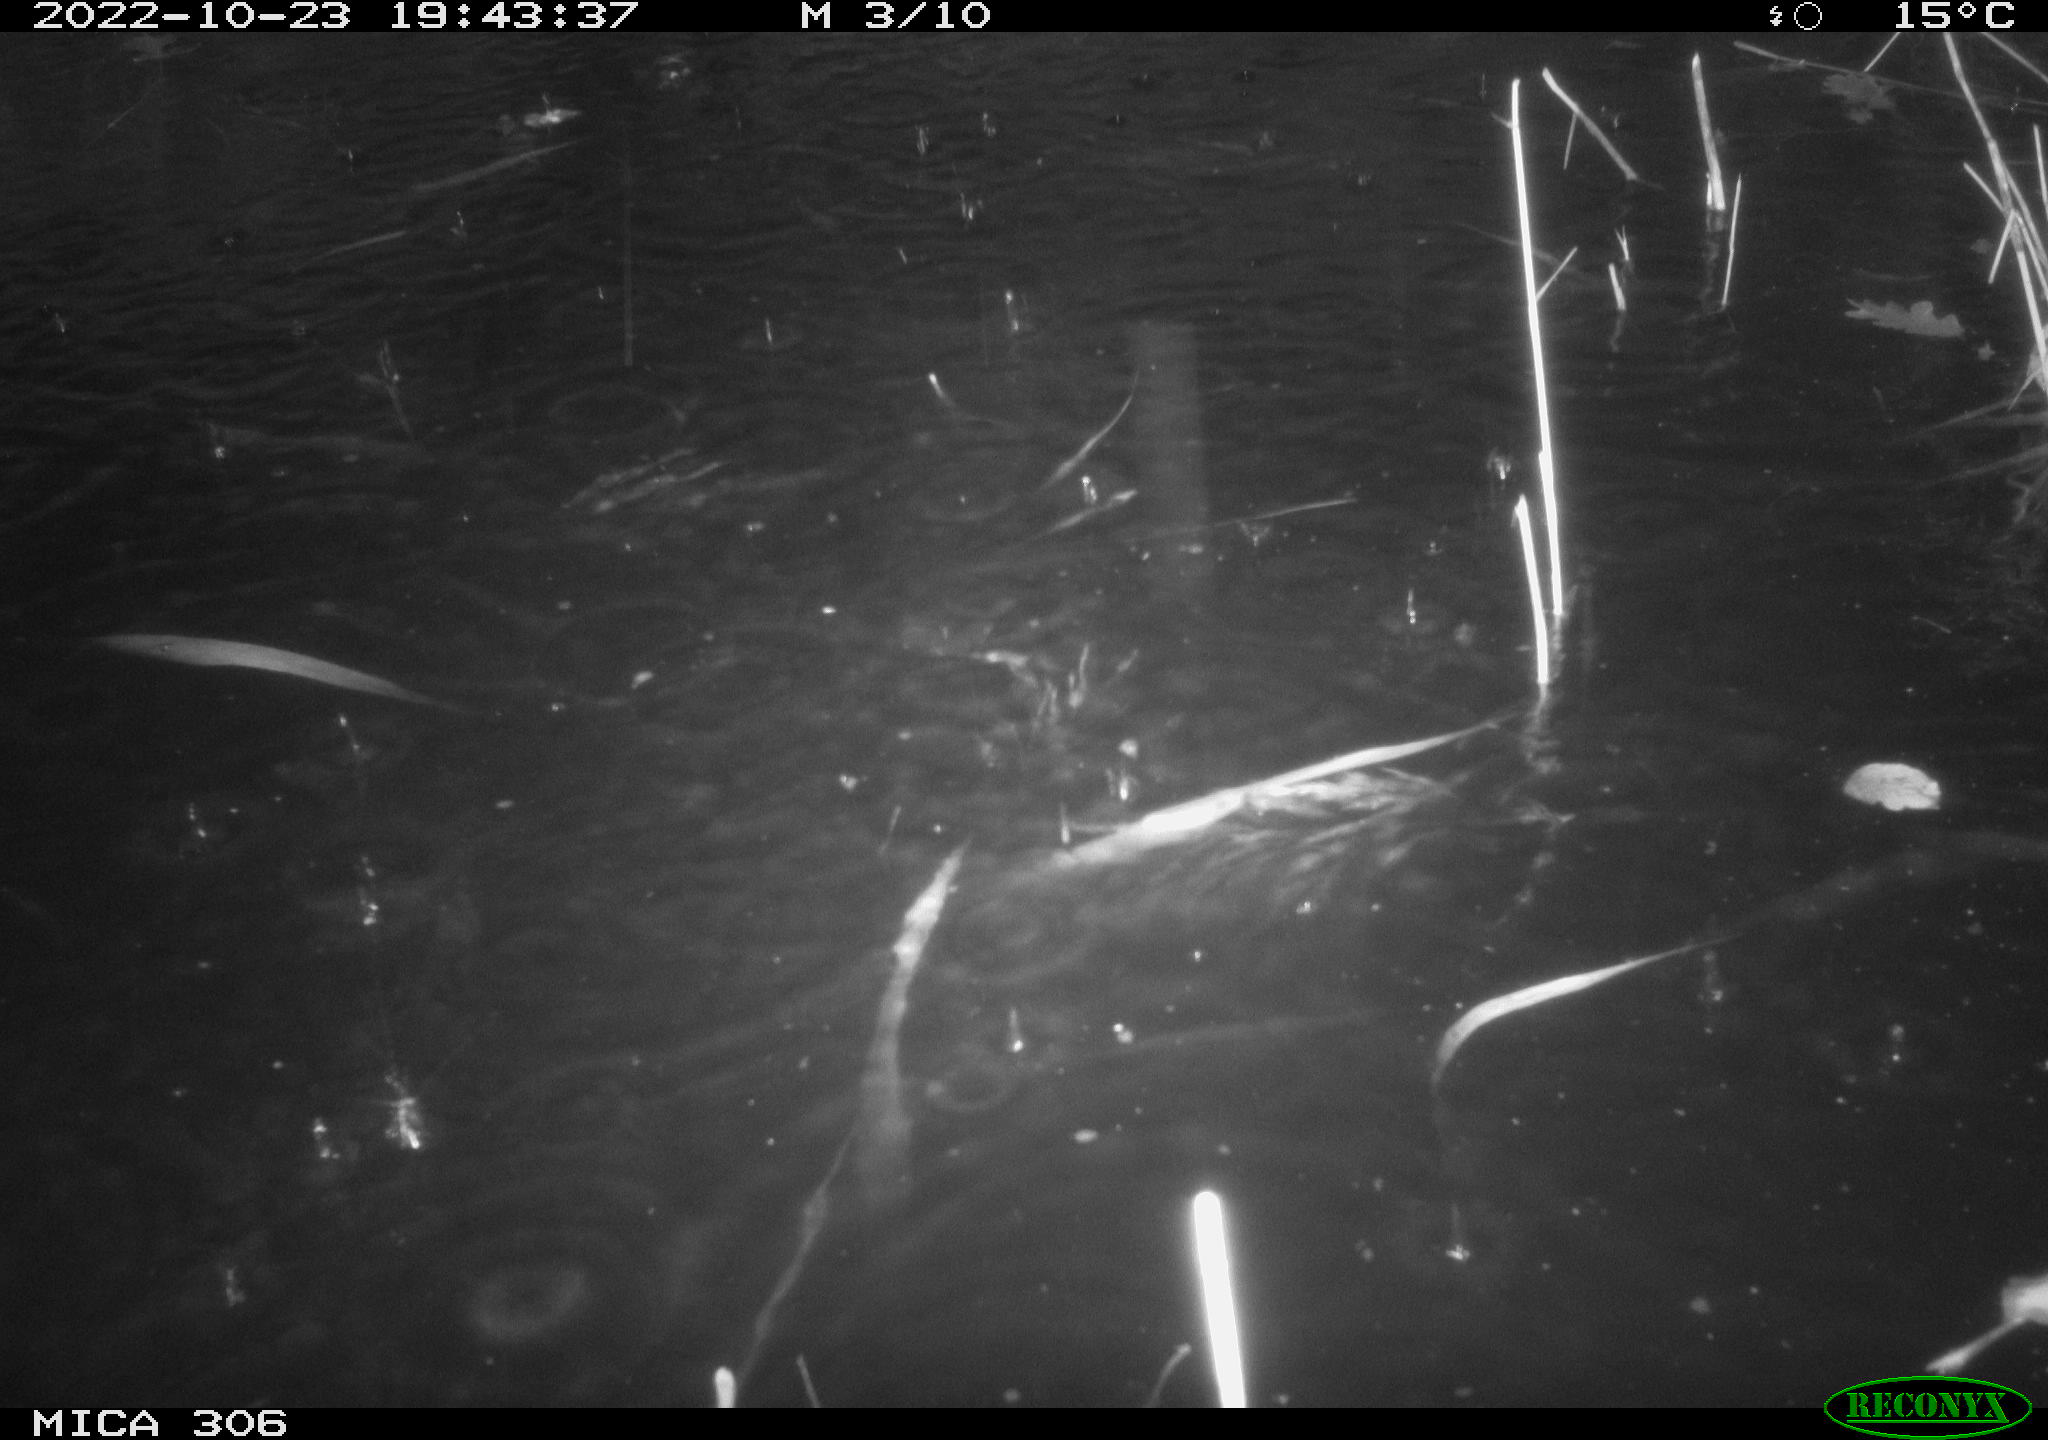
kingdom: Animalia
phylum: Chordata
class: Mammalia
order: Rodentia
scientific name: Rodentia
